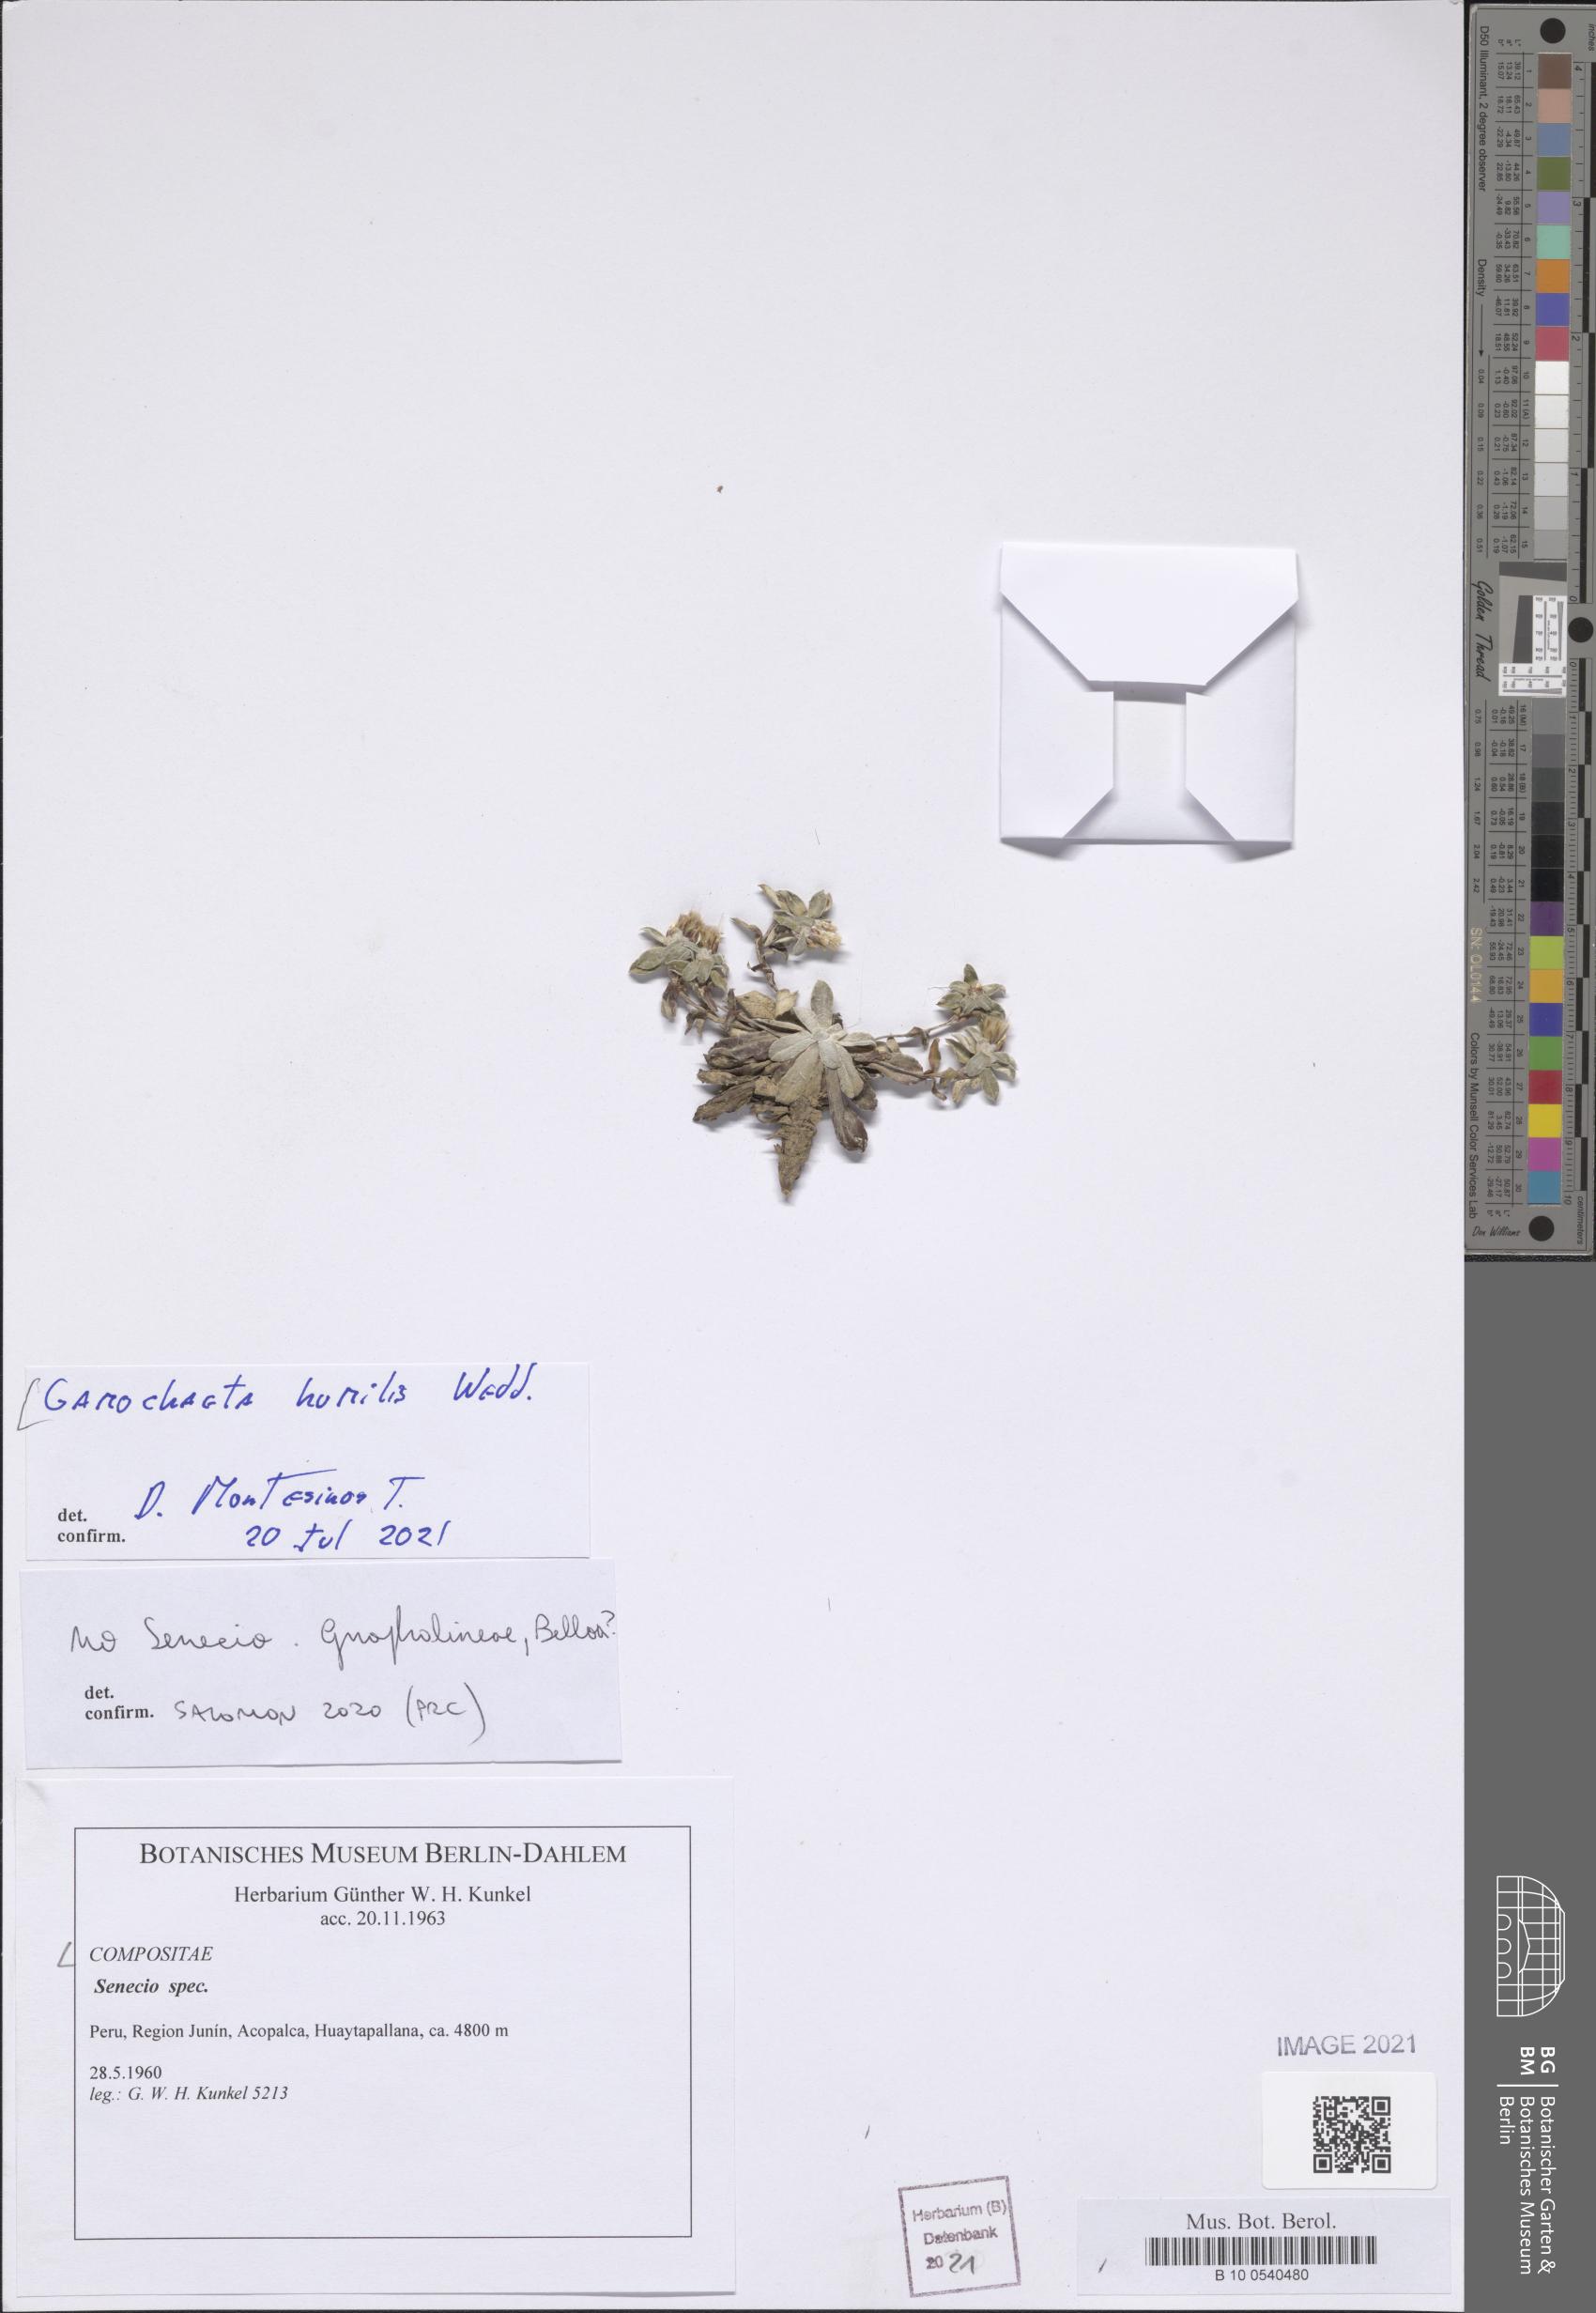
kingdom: Plantae
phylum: Tracheophyta
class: Magnoliopsida
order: Asterales
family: Asteraceae
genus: Gamochaeta
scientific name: Gamochaeta humilis
